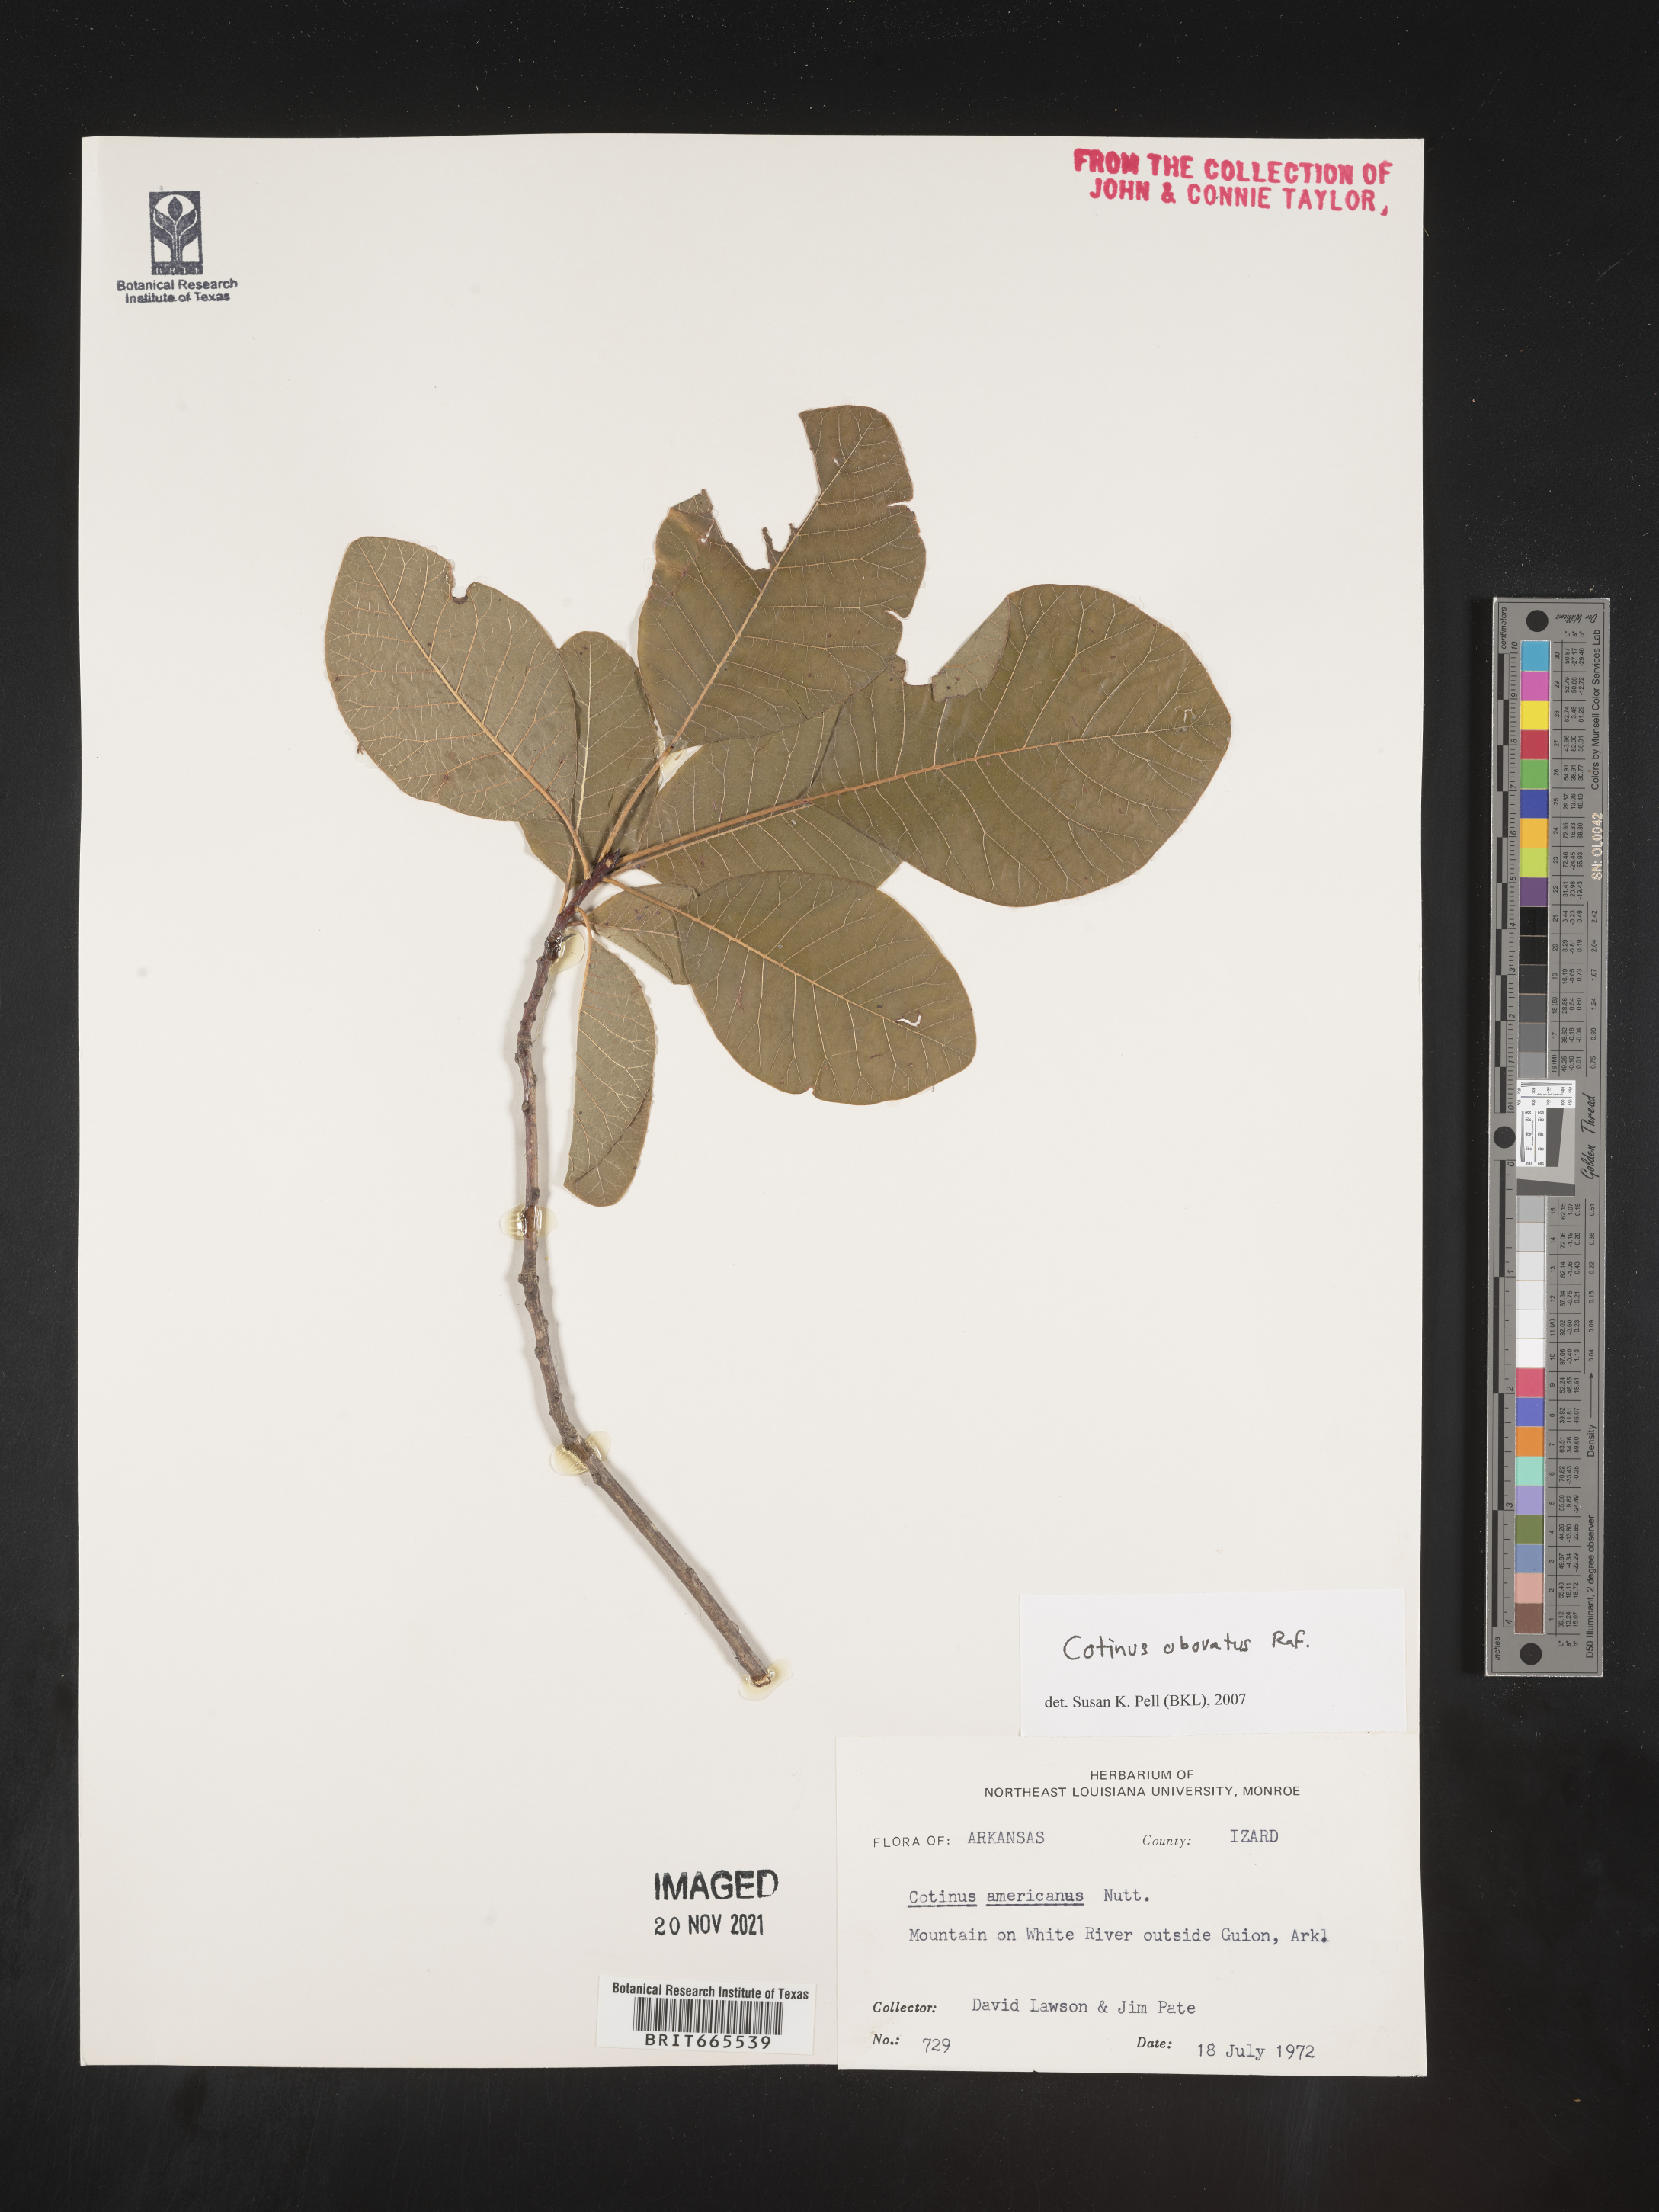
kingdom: Plantae
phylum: Tracheophyta
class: Magnoliopsida
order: Sapindales
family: Anacardiaceae
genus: Cotinus
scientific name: Cotinus obovatus
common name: Chittamwood
